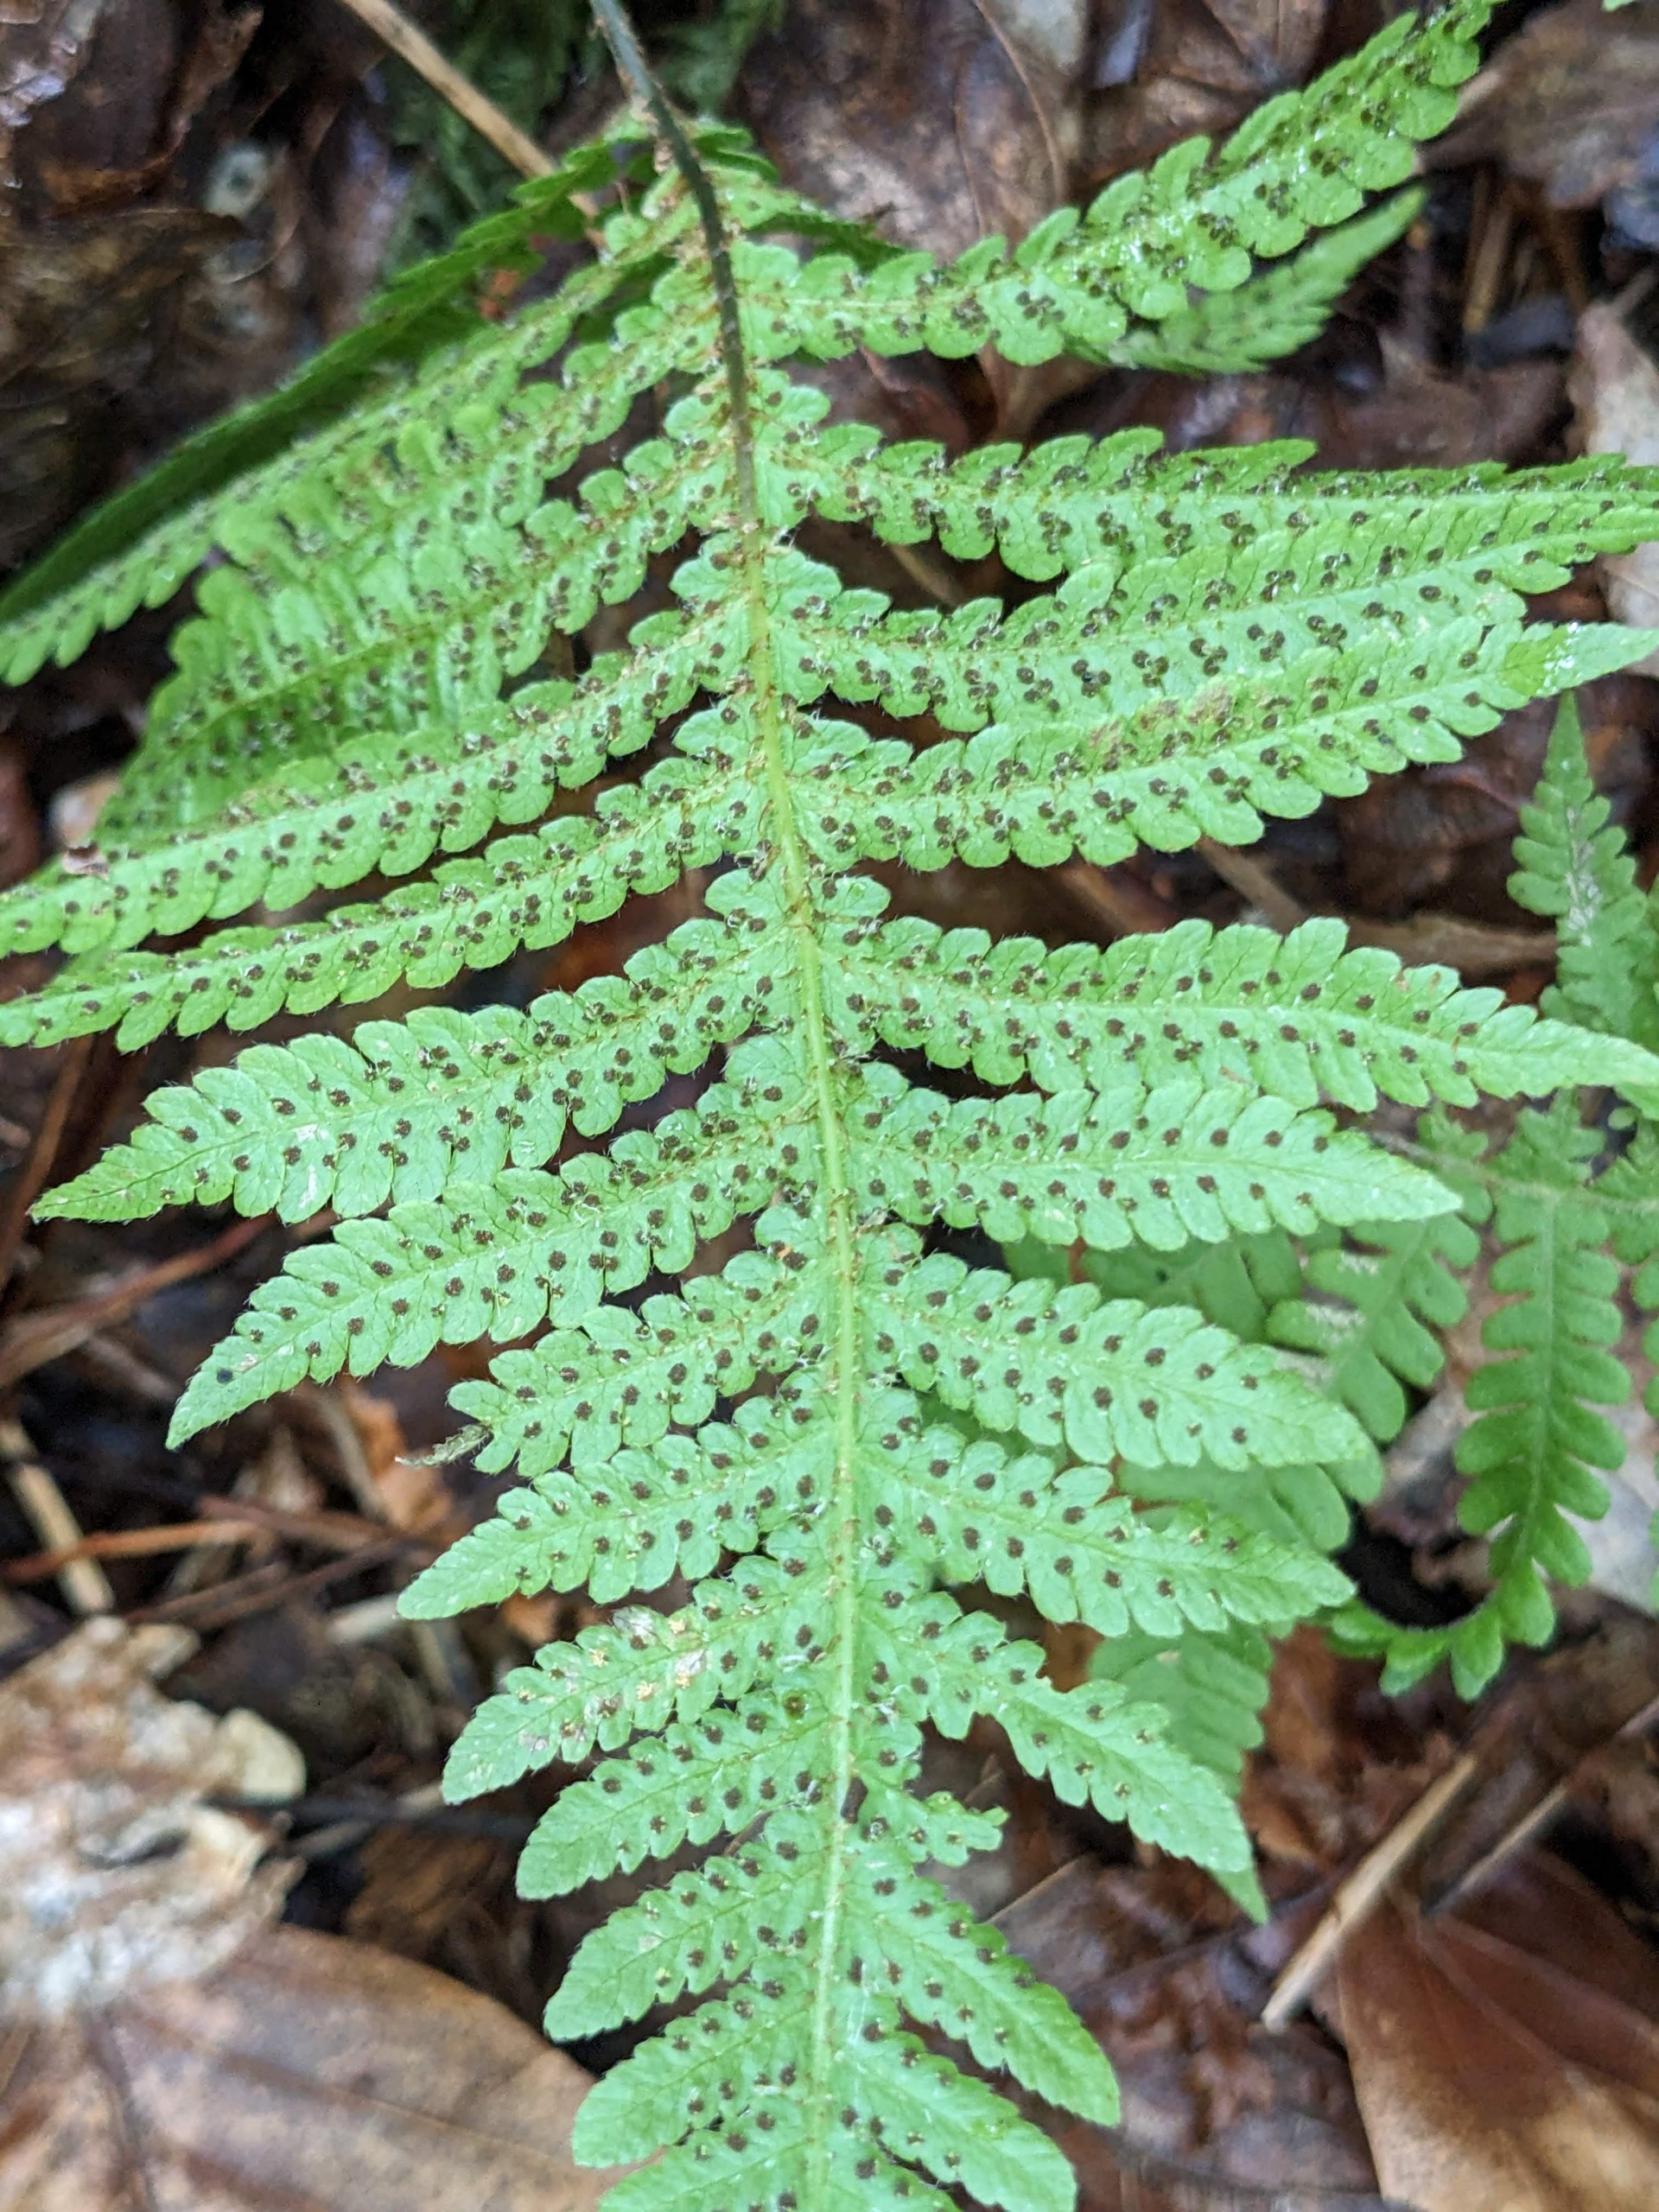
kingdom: Plantae
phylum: Tracheophyta
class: Polypodiopsida
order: Polypodiales
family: Thelypteridaceae
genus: Phegopteris
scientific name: Phegopteris connectilis
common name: Dunet egebregne
